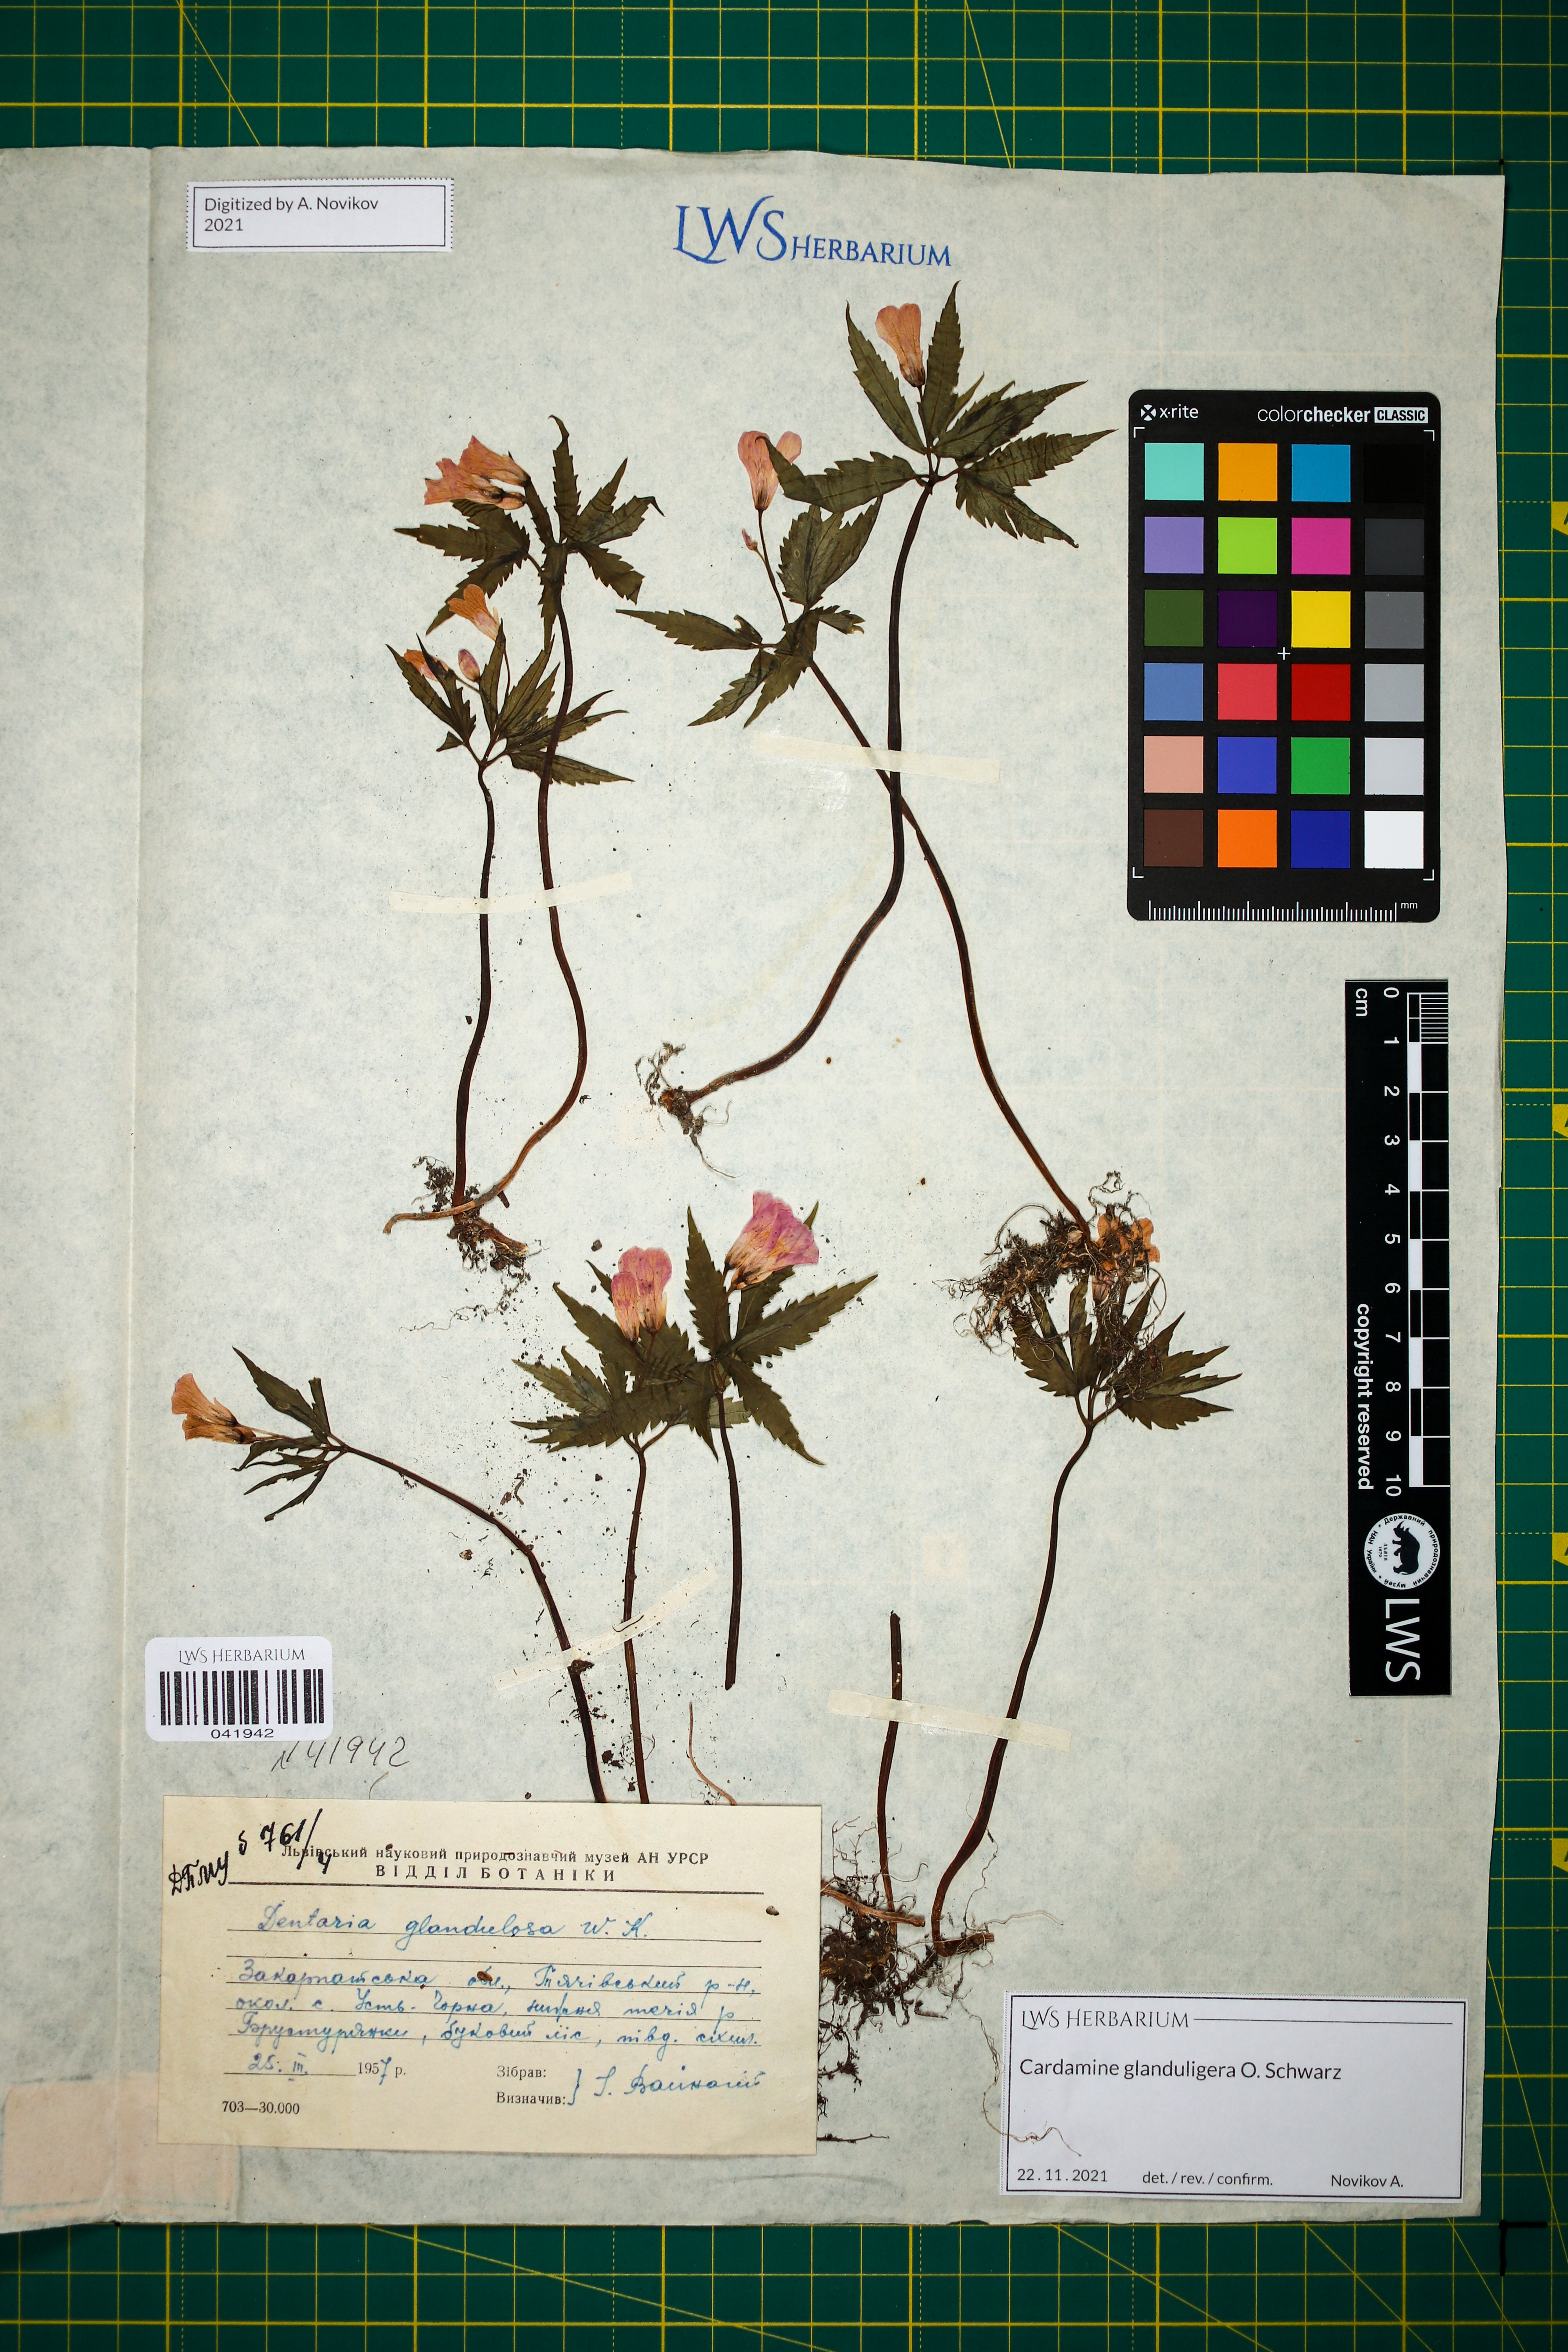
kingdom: Plantae
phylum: Tracheophyta
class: Magnoliopsida
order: Brassicales
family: Brassicaceae
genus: Cardamine
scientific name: Cardamine glanduligera
